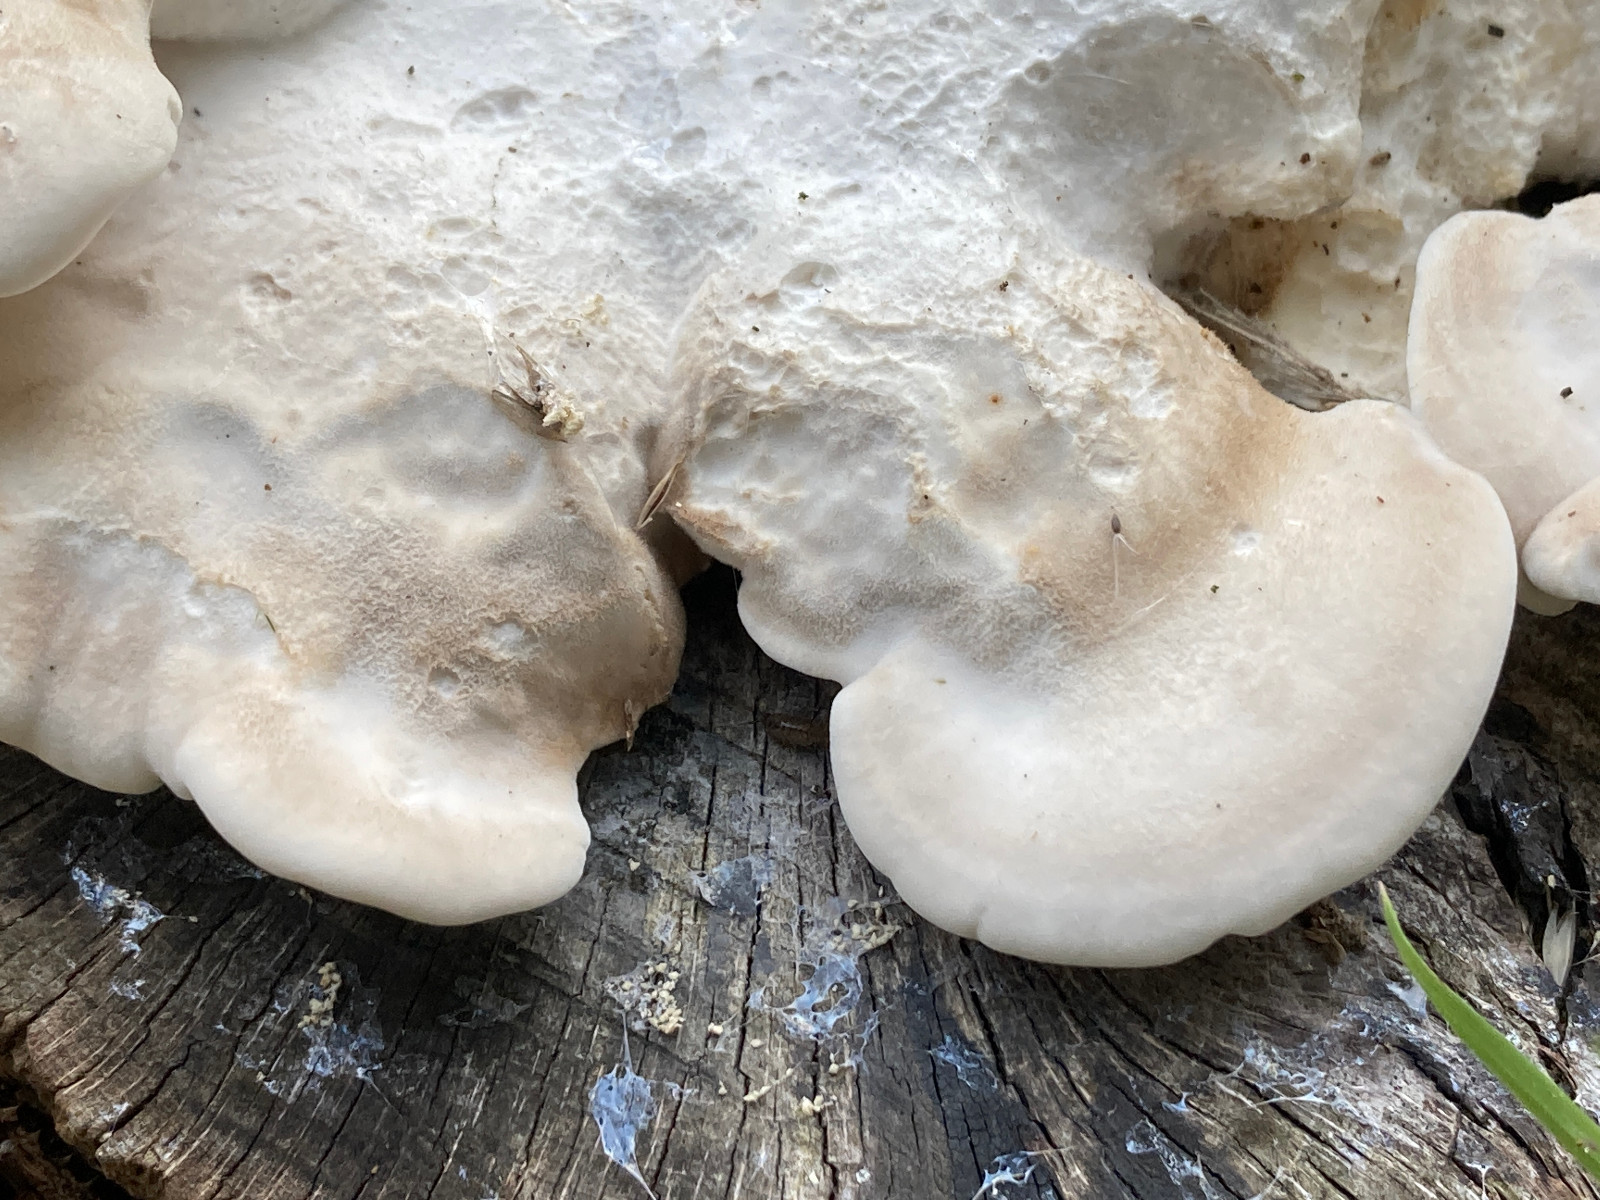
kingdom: Fungi
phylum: Basidiomycota
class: Agaricomycetes
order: Polyporales
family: Incrustoporiaceae
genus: Tyromyces
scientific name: Tyromyces lacteus
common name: mælkehvid kødporesvamp
